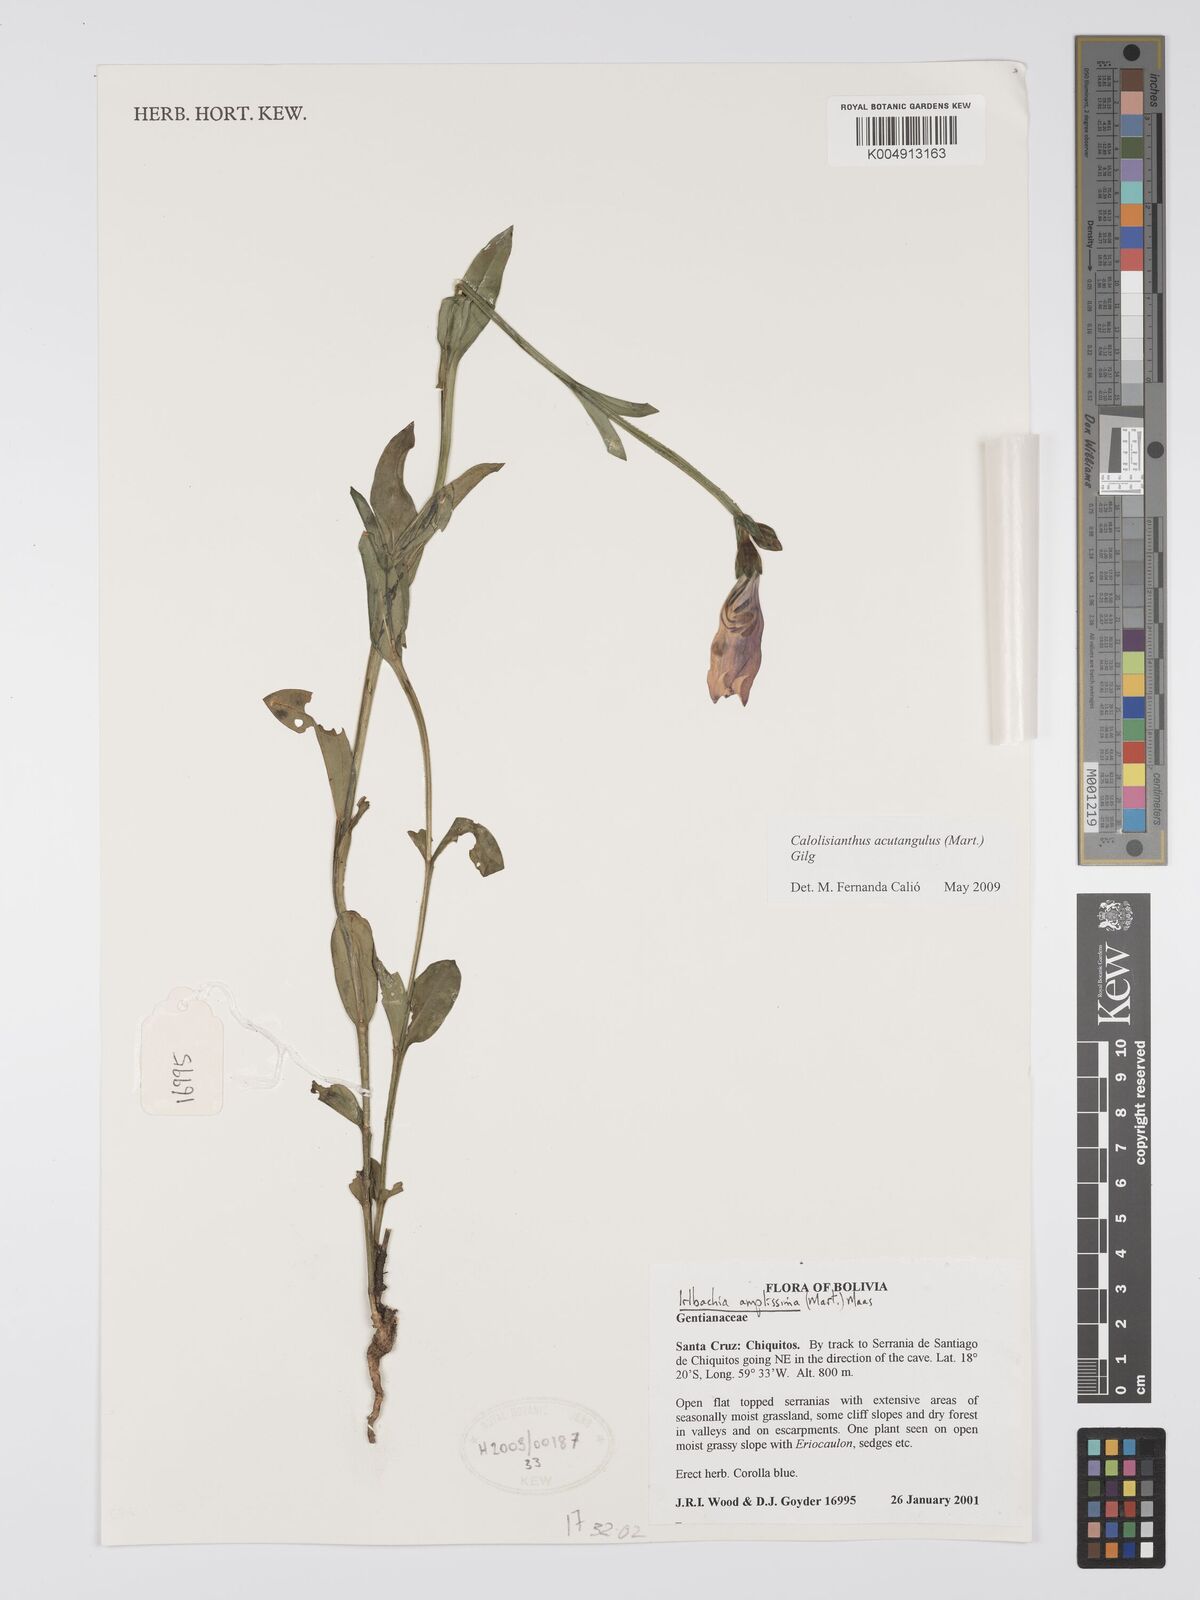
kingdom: Plantae
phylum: Tracheophyta
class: Magnoliopsida
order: Gentianales
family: Gentianaceae
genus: Chelonanthus
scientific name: Chelonanthus alatus
